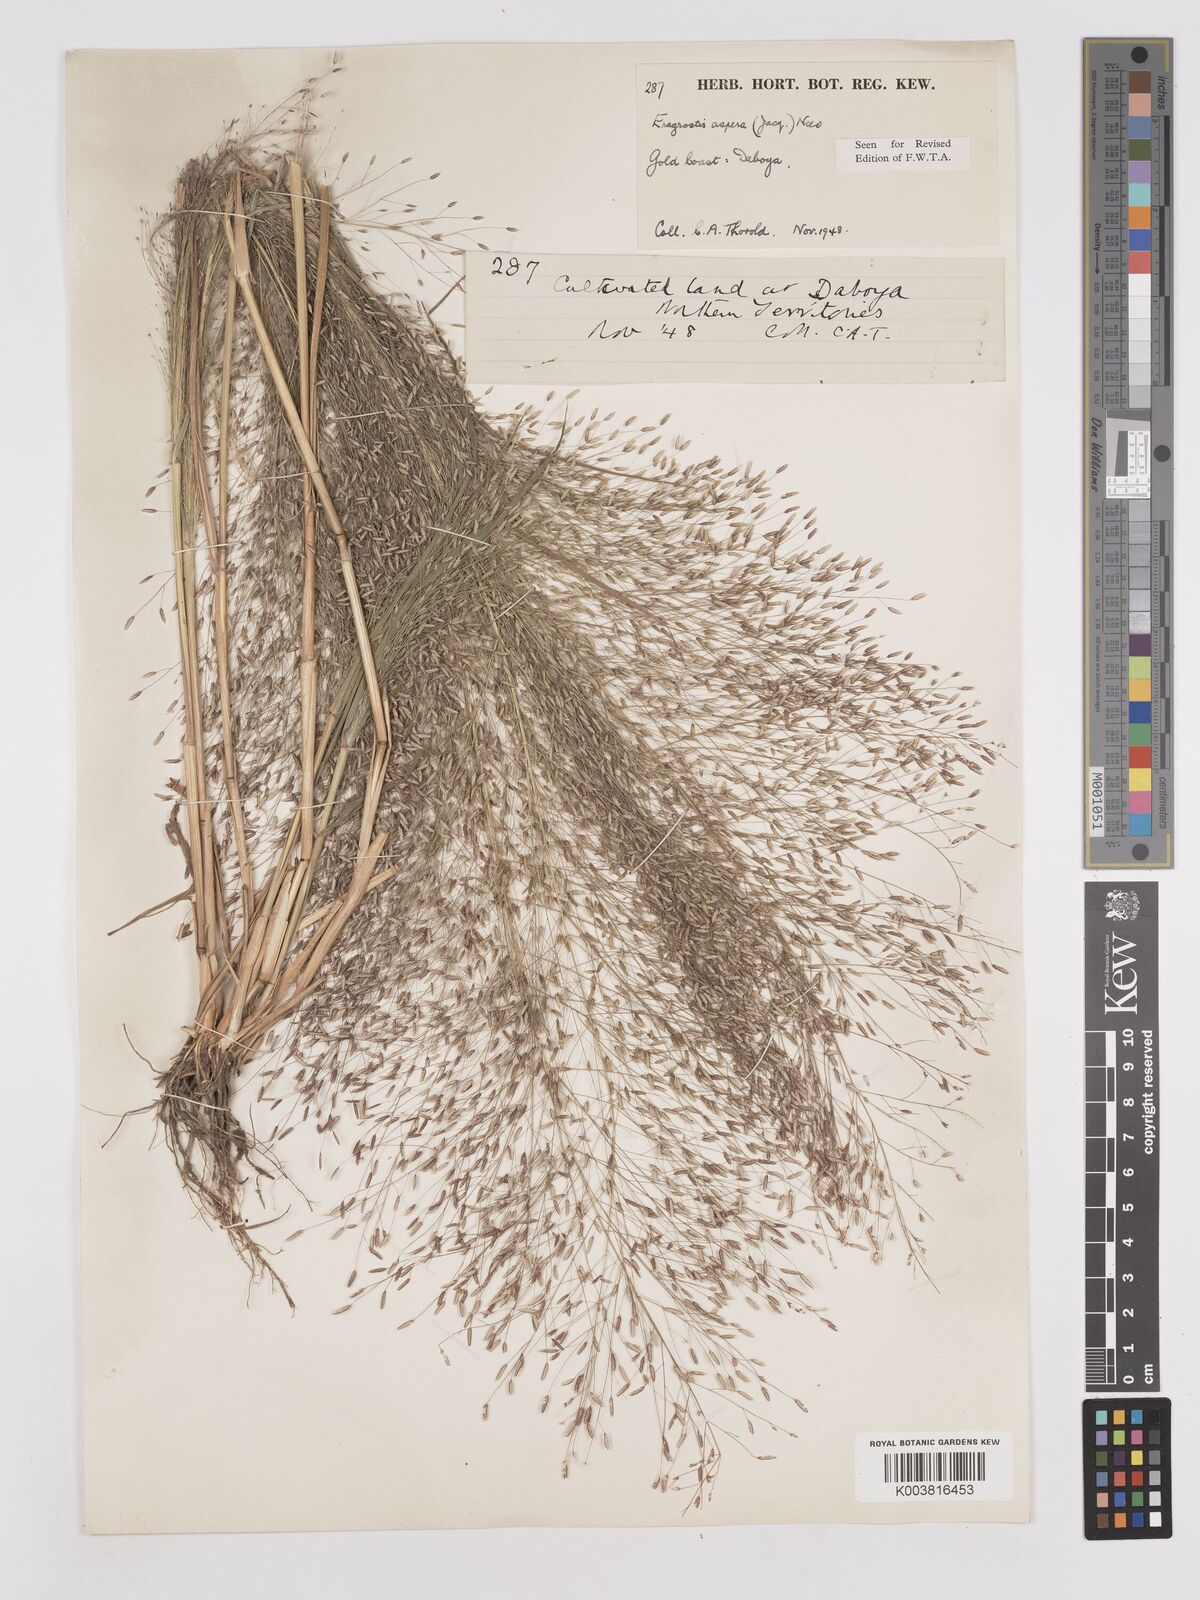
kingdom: Plantae
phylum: Tracheophyta
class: Liliopsida
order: Poales
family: Poaceae
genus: Eragrostis
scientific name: Eragrostis aspera
